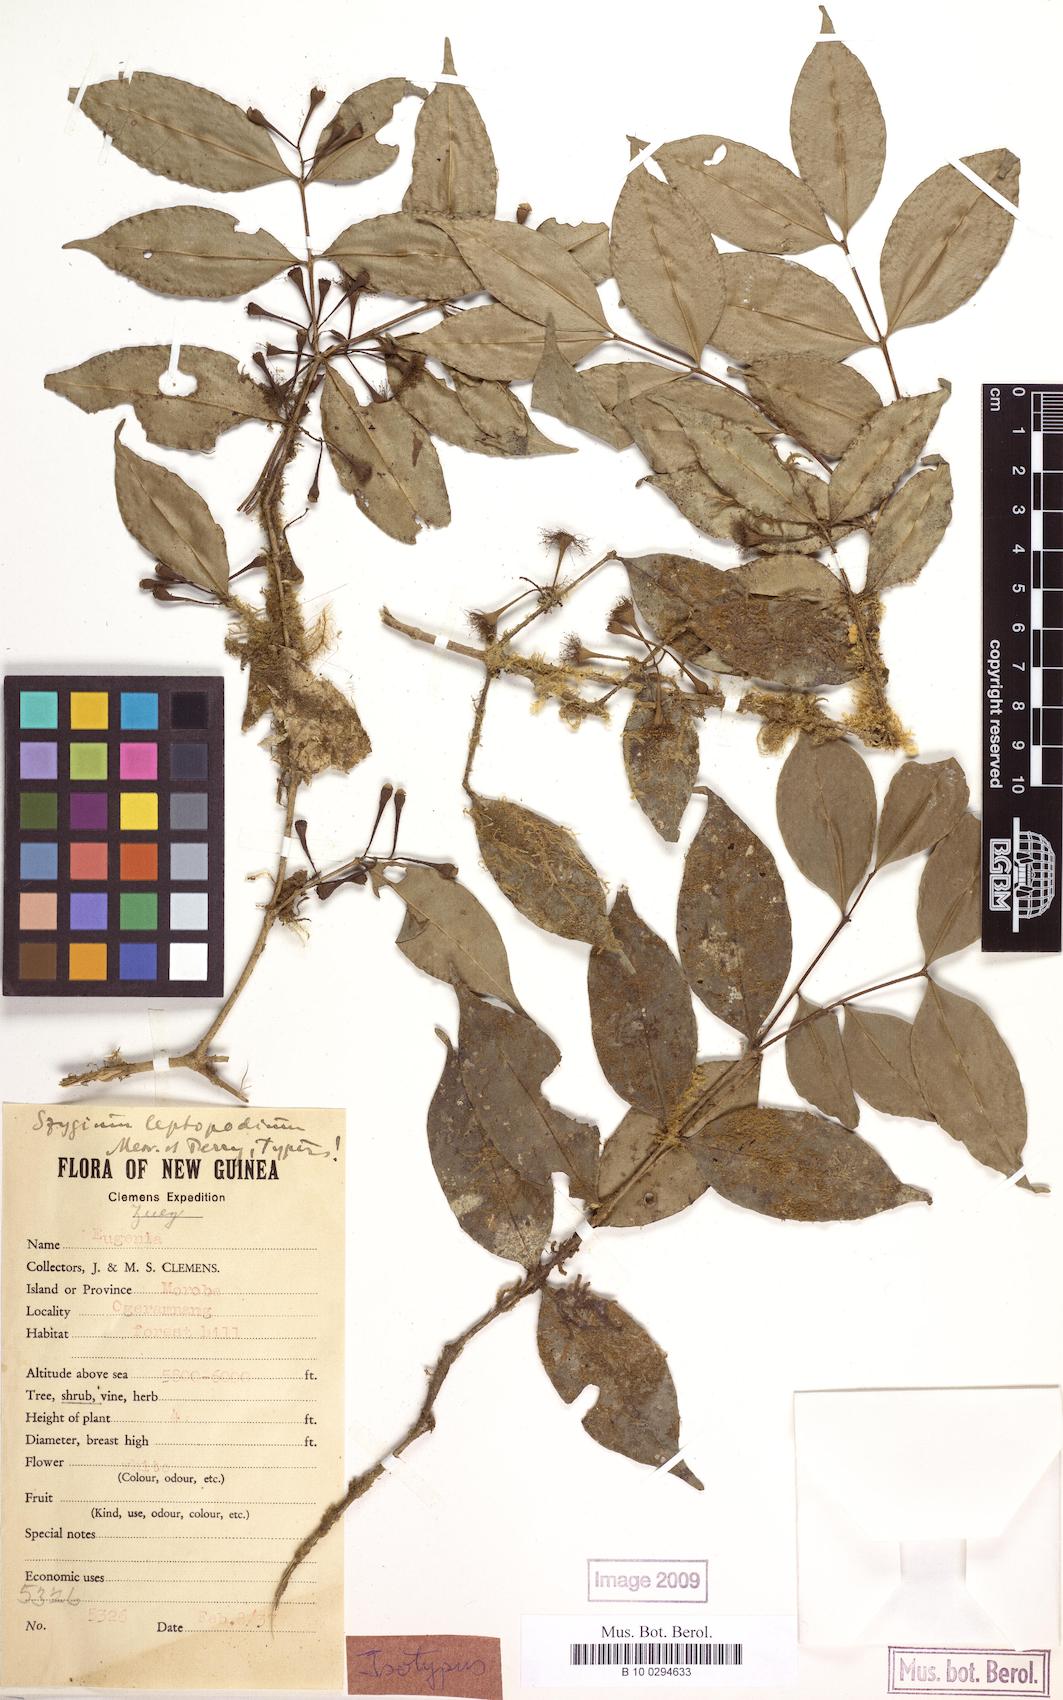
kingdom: Plantae
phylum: Tracheophyta
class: Magnoliopsida
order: Myrtales
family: Myrtaceae
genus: Syzygium
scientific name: Syzygium leptopodium
